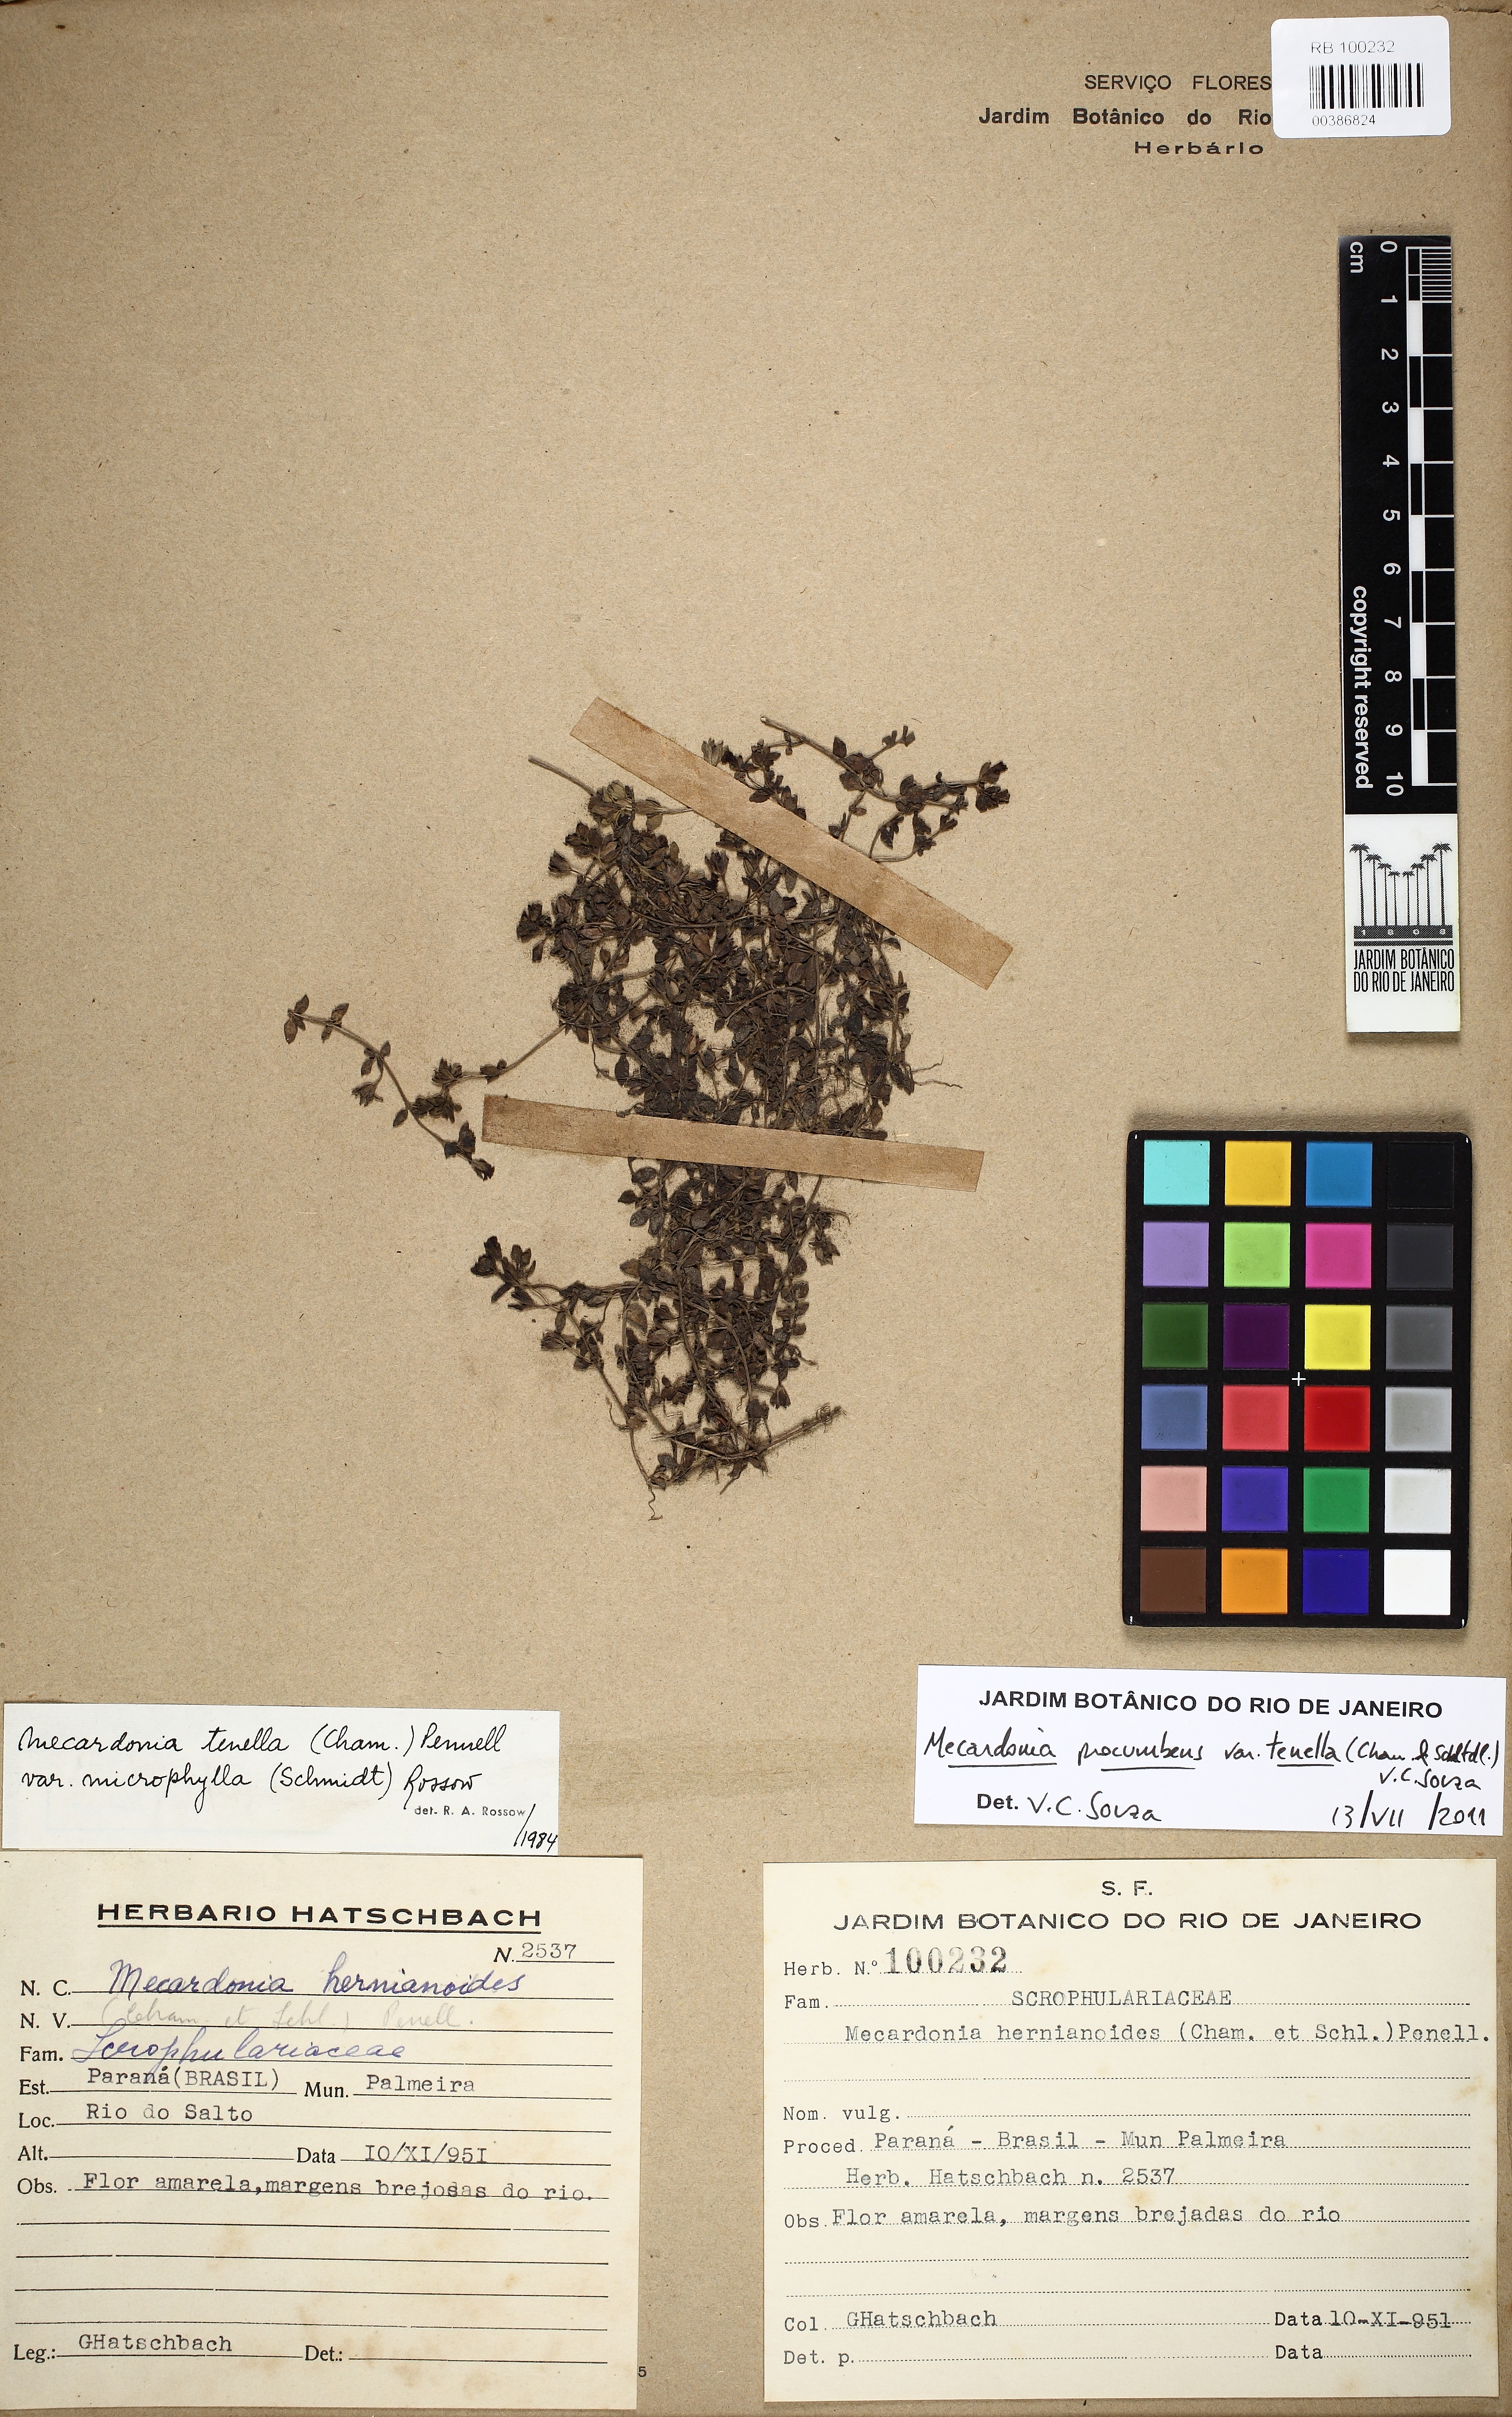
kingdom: Plantae
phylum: Tracheophyta
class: Magnoliopsida
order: Lamiales
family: Plantaginaceae
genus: Mecardonia
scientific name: Mecardonia procumbens
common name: Baby jump-up
